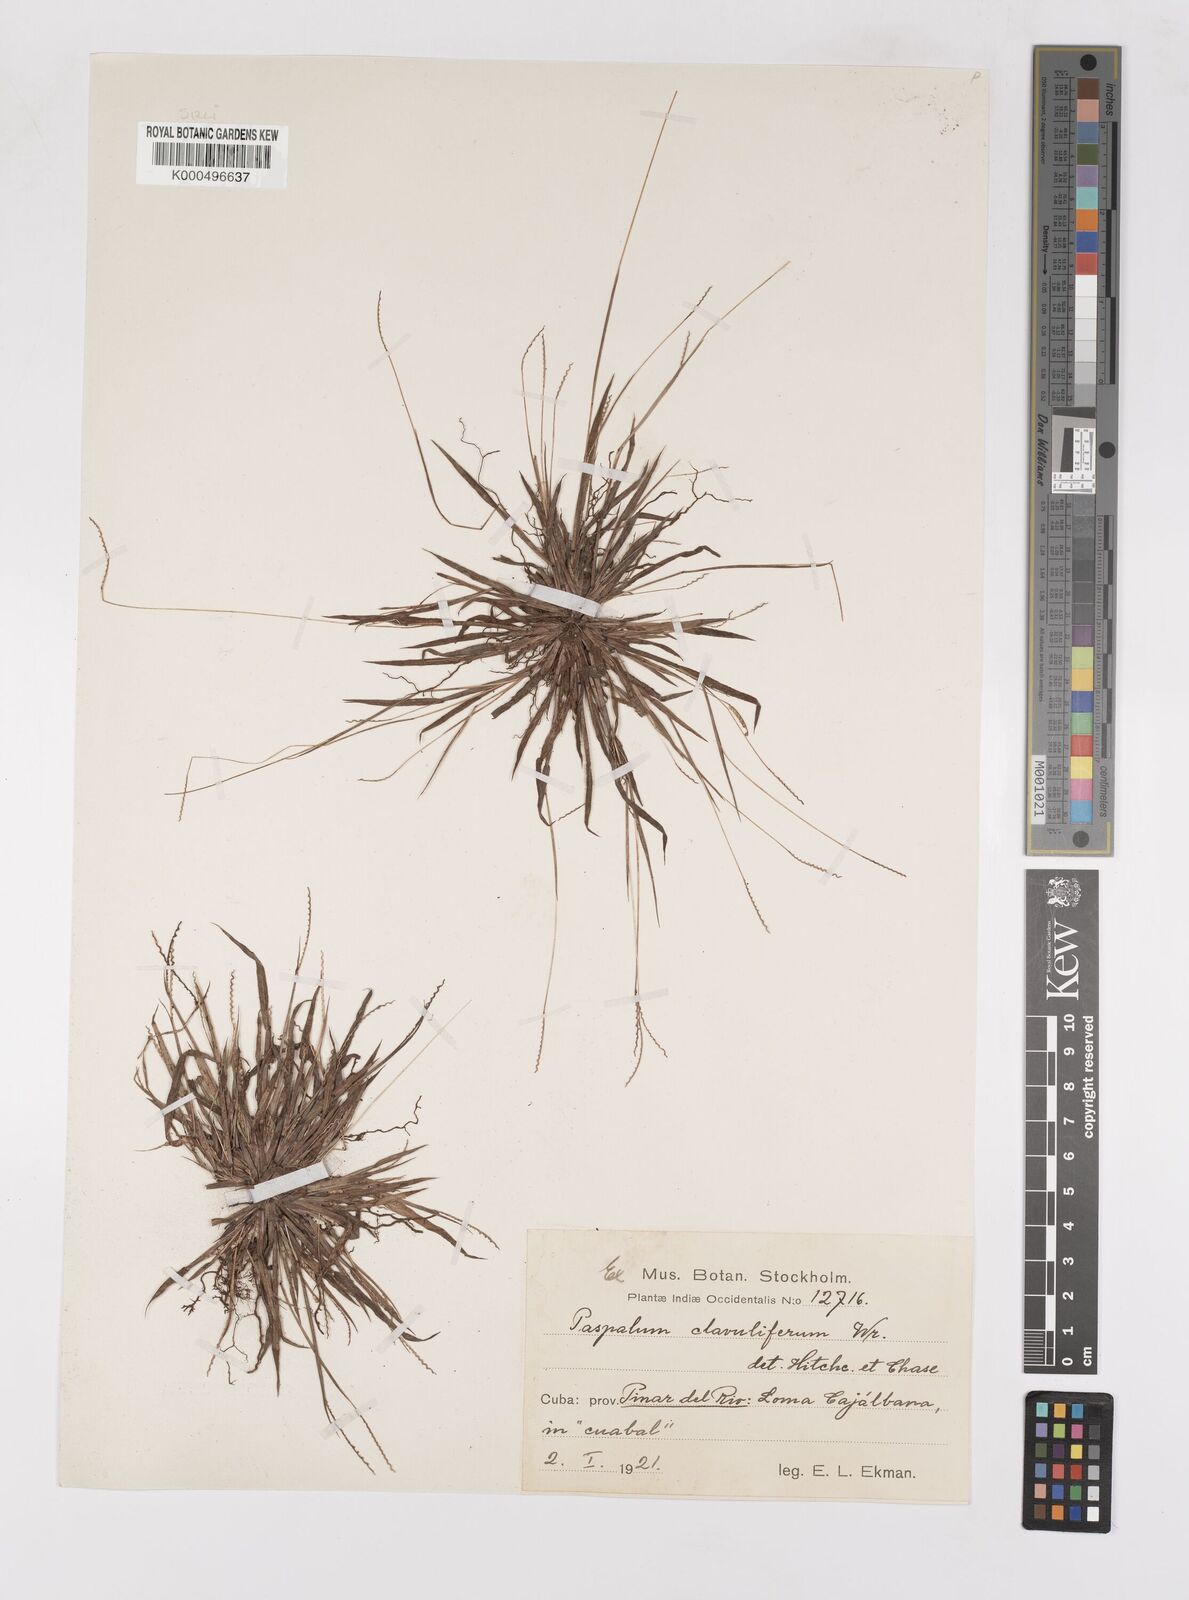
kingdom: Plantae
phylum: Tracheophyta
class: Liliopsida
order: Poales
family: Poaceae
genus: Paspalum
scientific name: Paspalum clavuliferum
